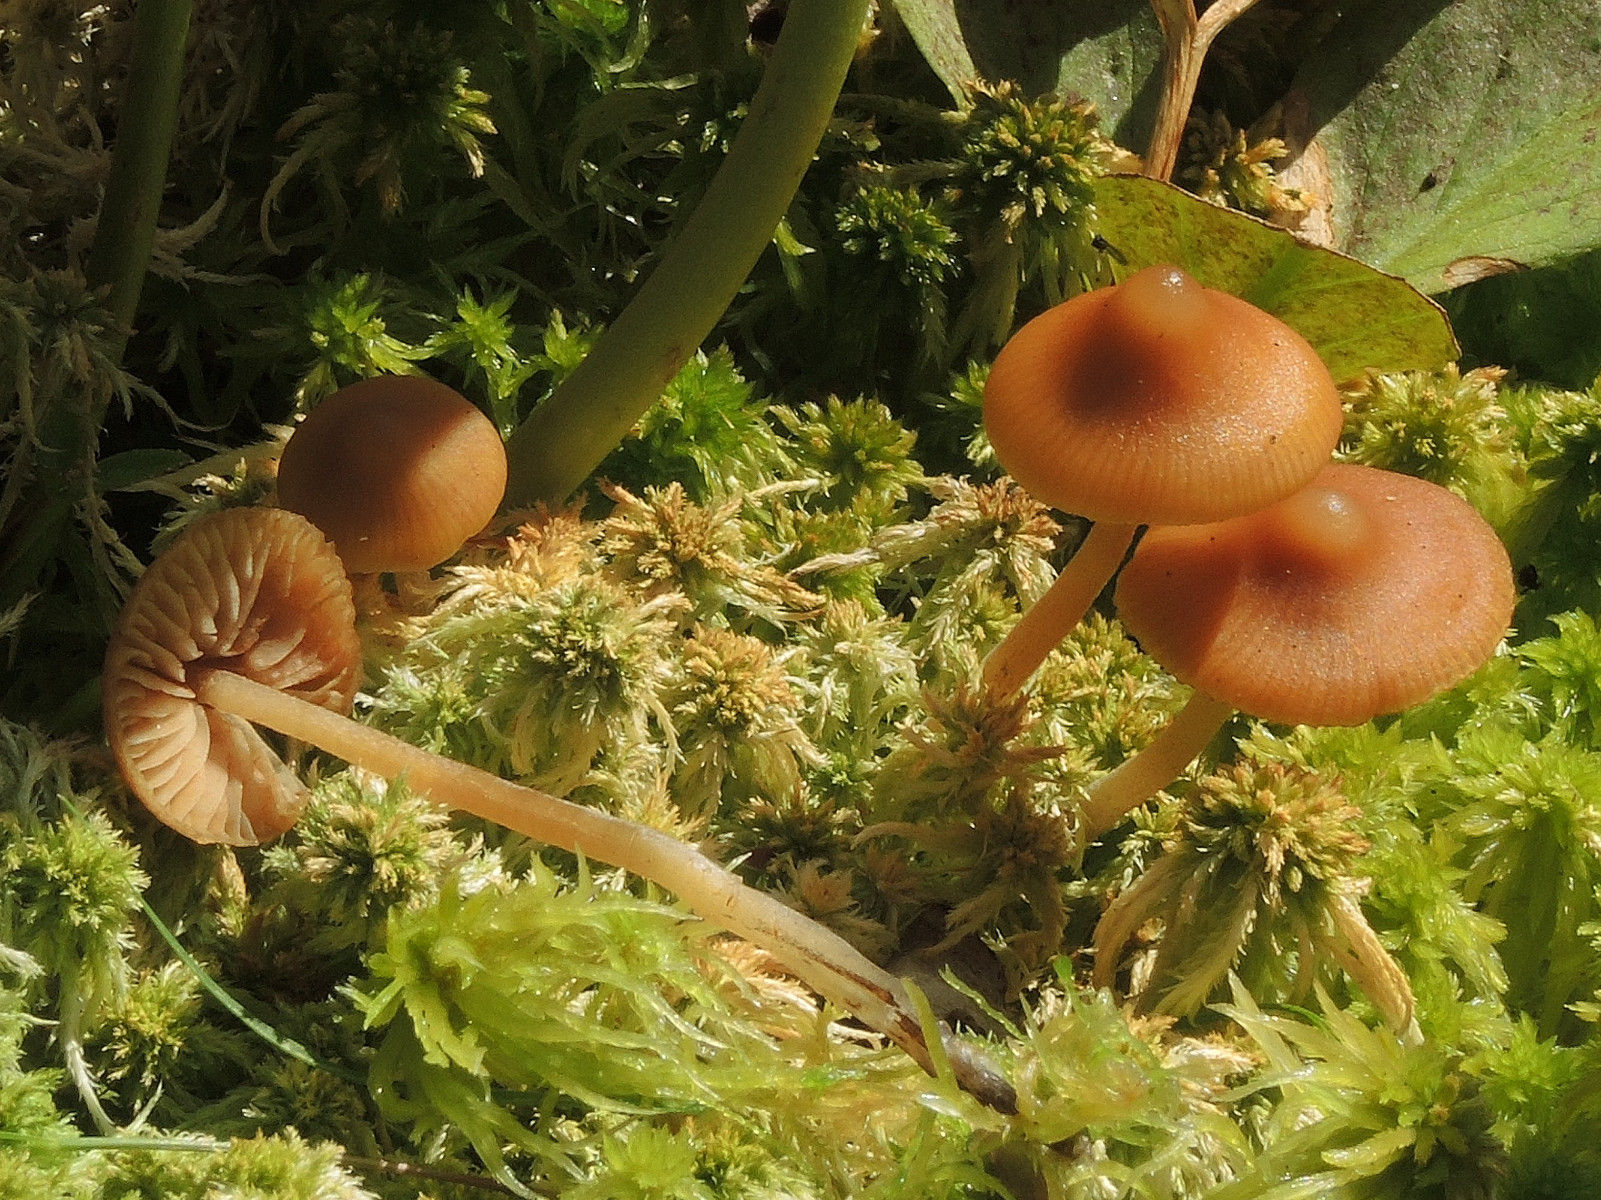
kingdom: Fungi
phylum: Basidiomycota
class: Agaricomycetes
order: Agaricales
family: Hymenogastraceae
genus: Galerina
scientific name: Galerina hybrida
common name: hængesæk-hjelmhat
